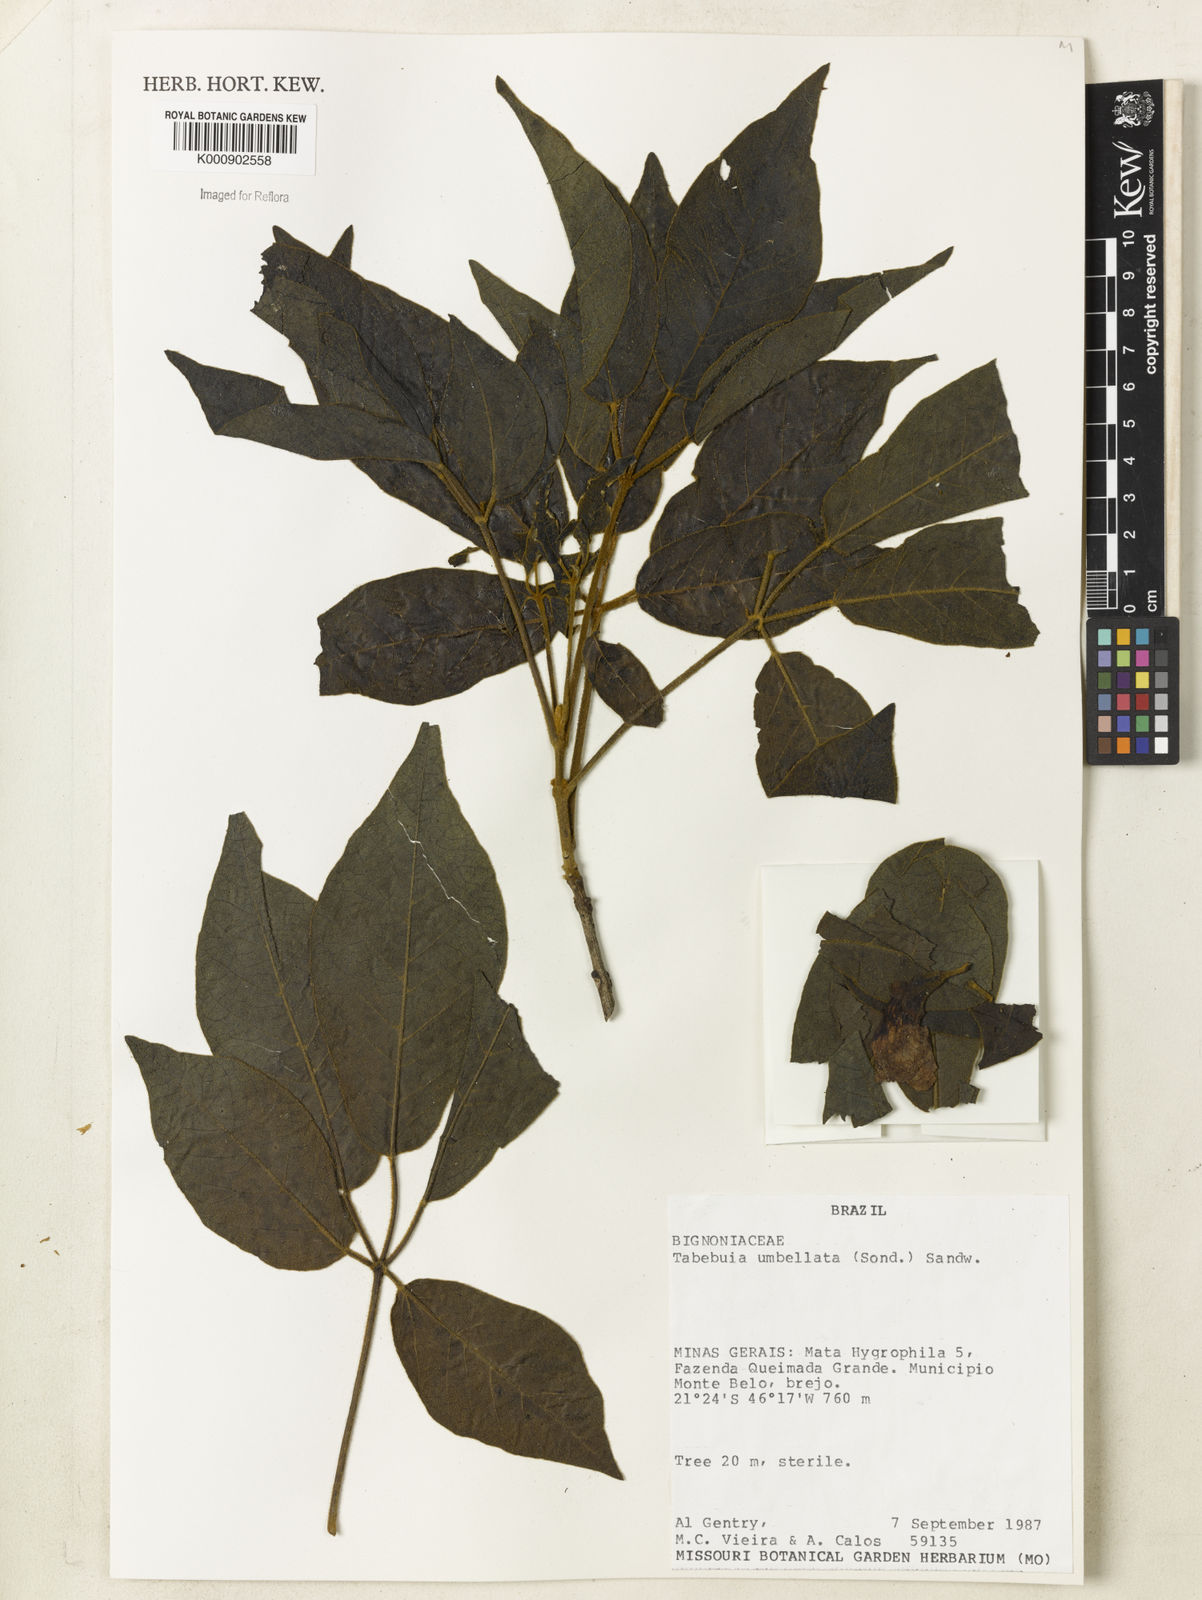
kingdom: Plantae
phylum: Tracheophyta
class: Magnoliopsida
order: Lamiales
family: Bignoniaceae
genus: Handroanthus
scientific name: Handroanthus umbellatus
